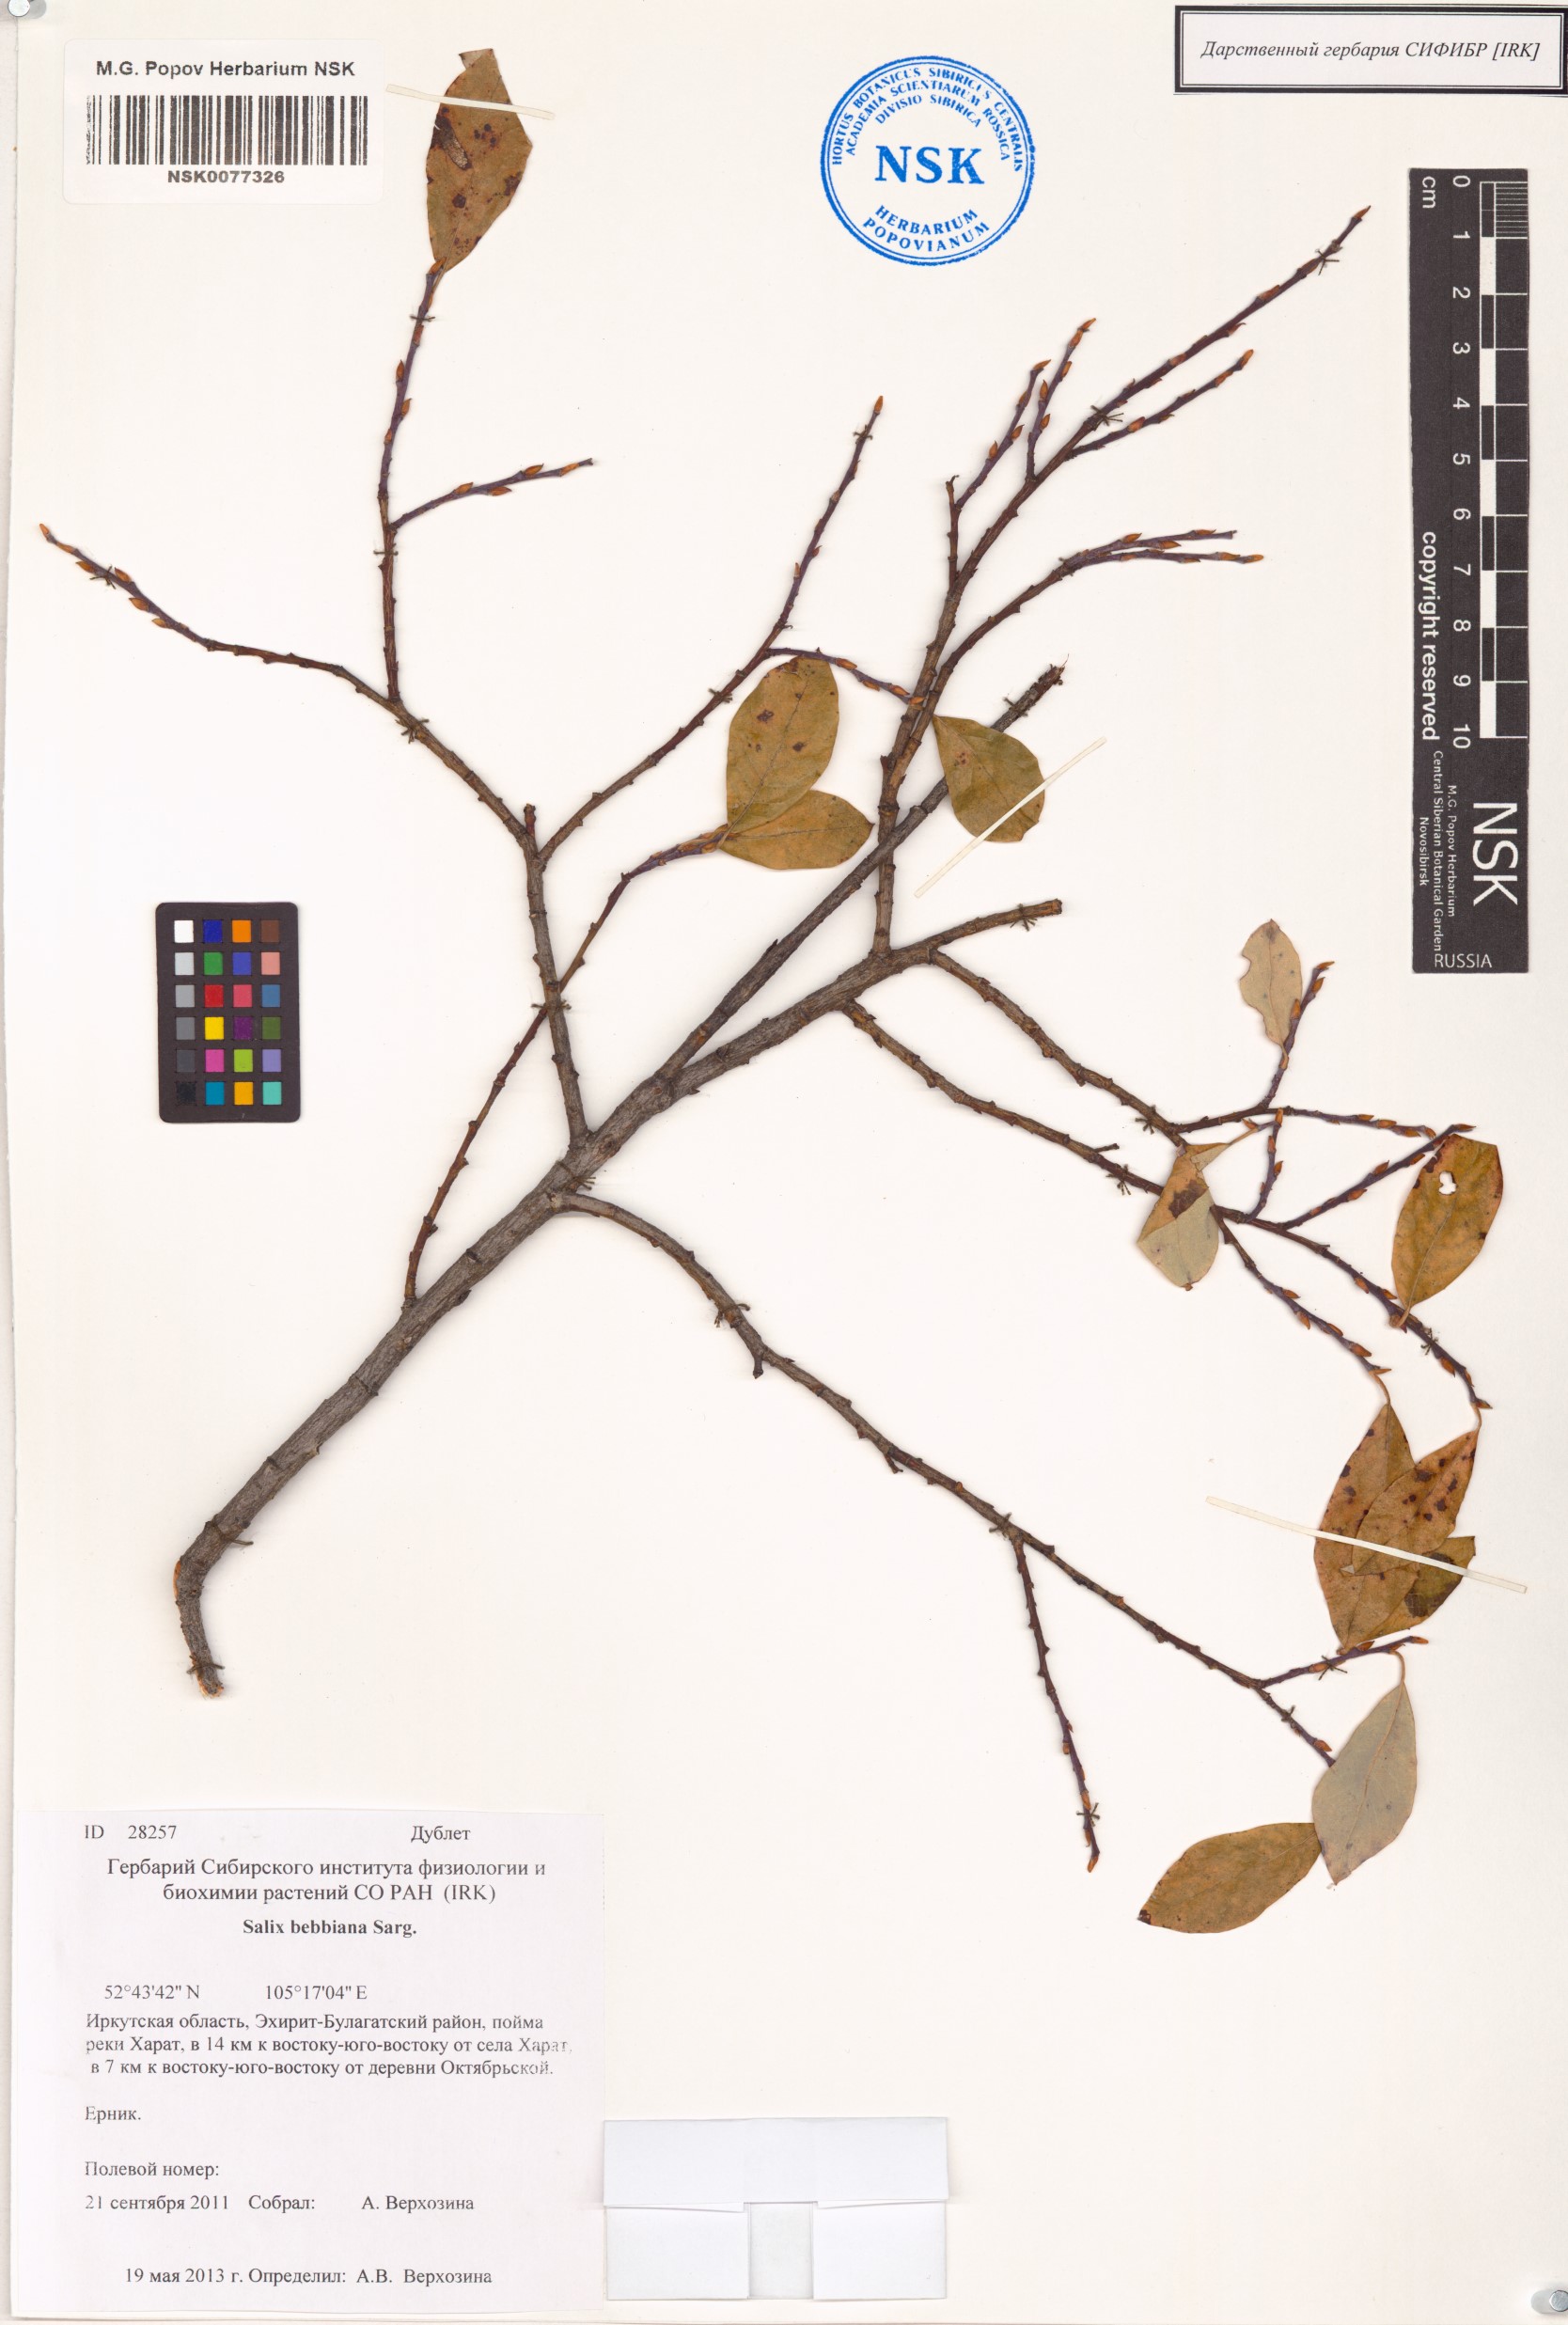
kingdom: Plantae
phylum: Tracheophyta
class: Magnoliopsida
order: Malpighiales
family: Salicaceae
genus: Salix
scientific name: Salix bebbiana
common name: Bebb's willow
